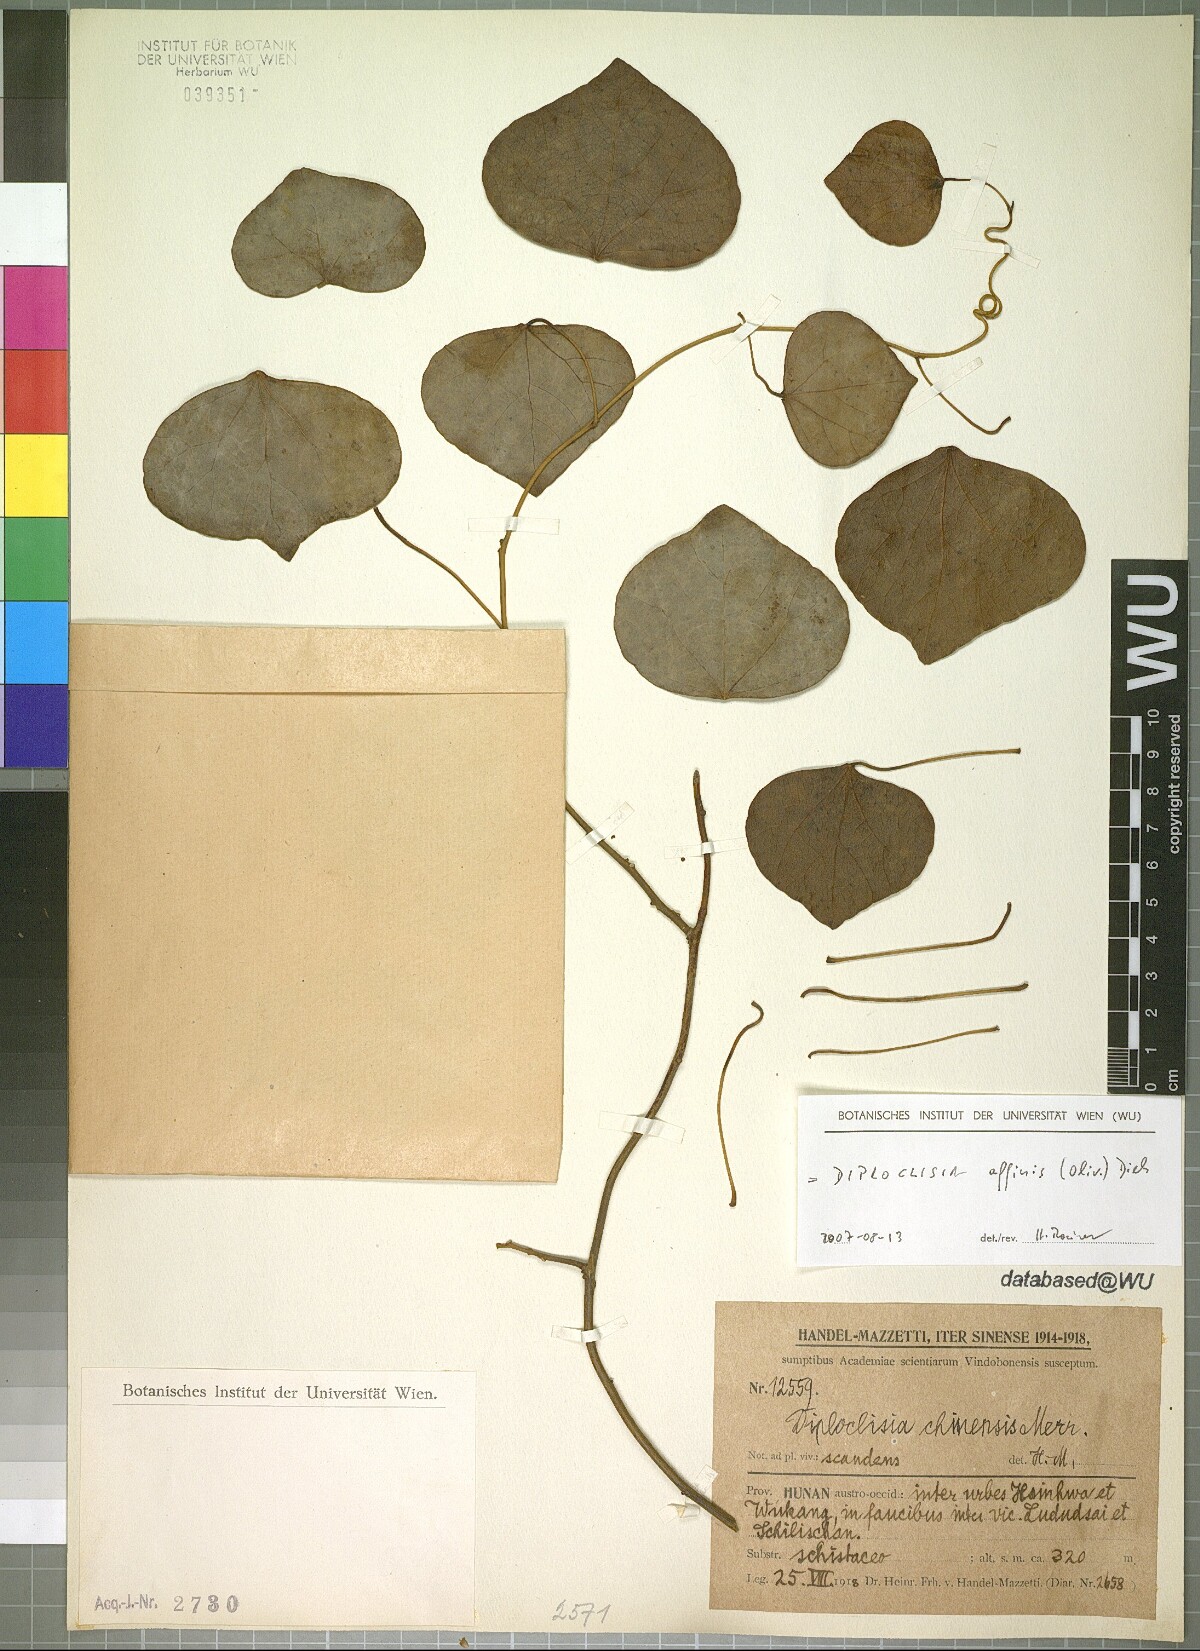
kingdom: Plantae
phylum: Tracheophyta
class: Magnoliopsida
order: Ranunculales
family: Menispermaceae
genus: Diploclisia
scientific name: Diploclisia affinis
